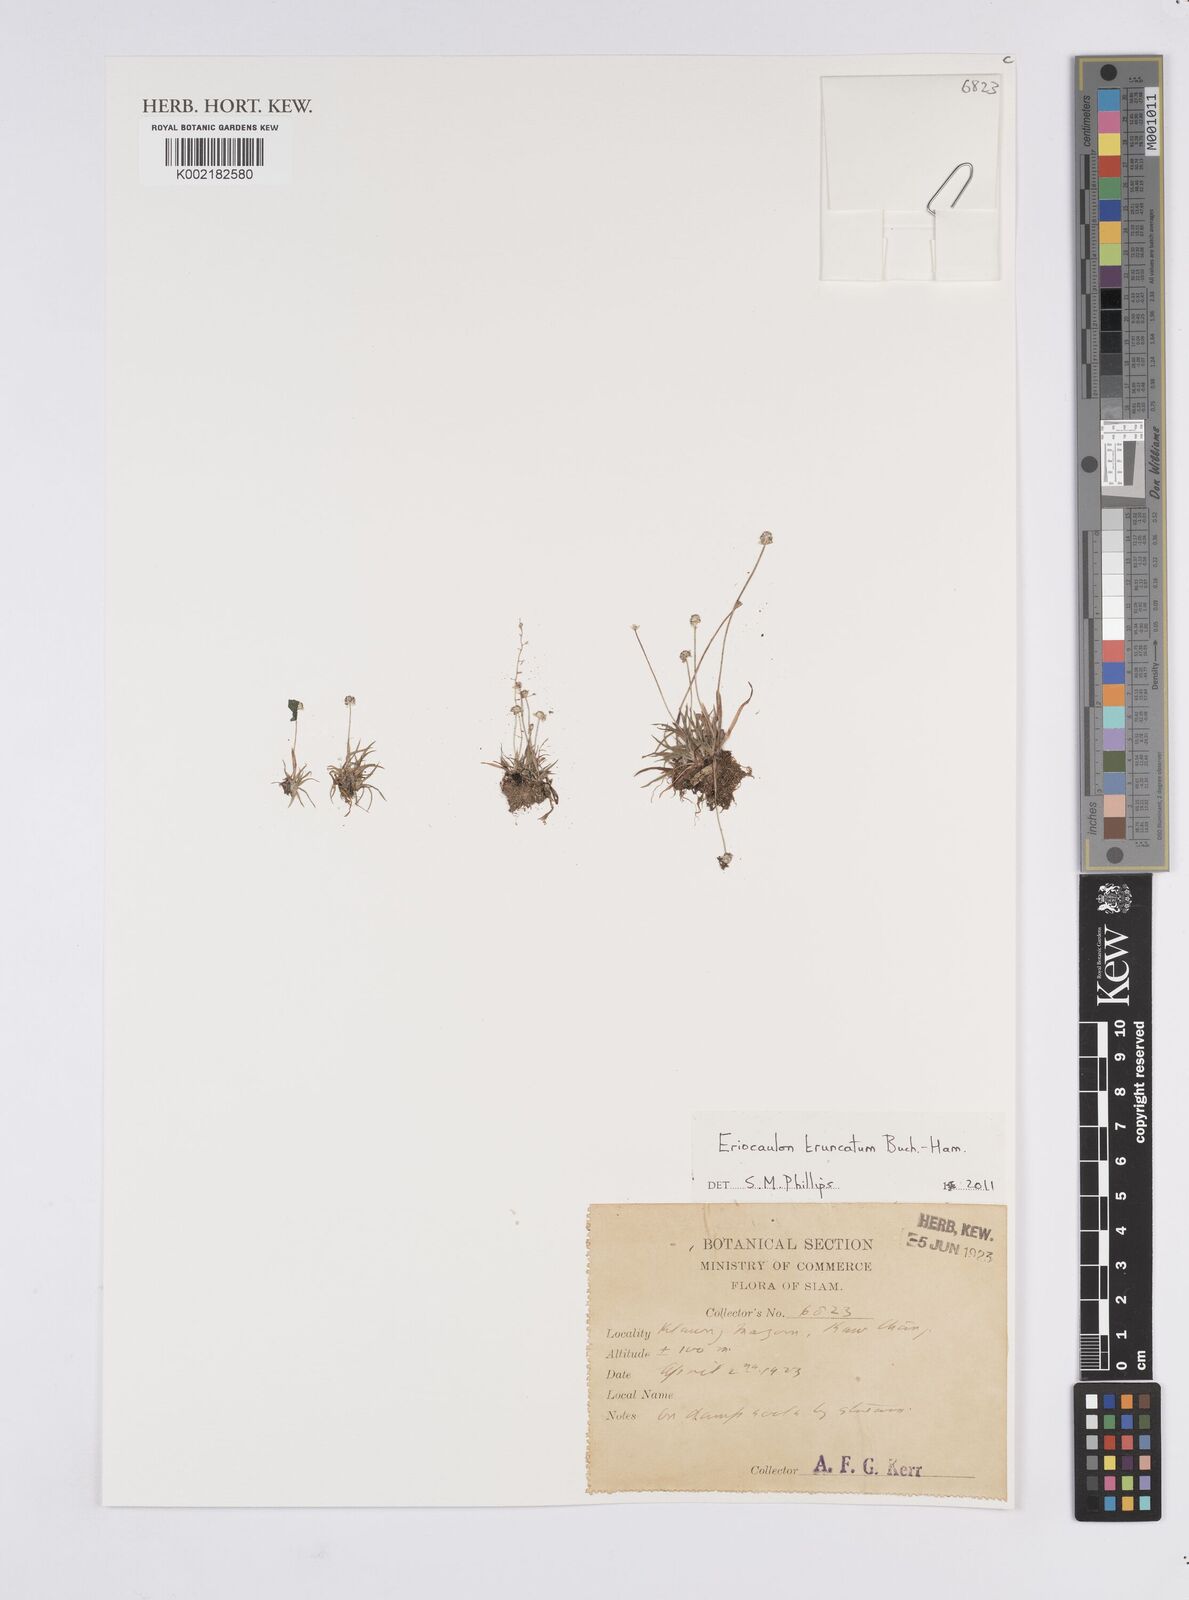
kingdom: Plantae
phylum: Tracheophyta
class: Liliopsida
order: Poales
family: Eriocaulaceae
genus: Eriocaulon
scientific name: Eriocaulon truncatum
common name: Short pipe-wort
